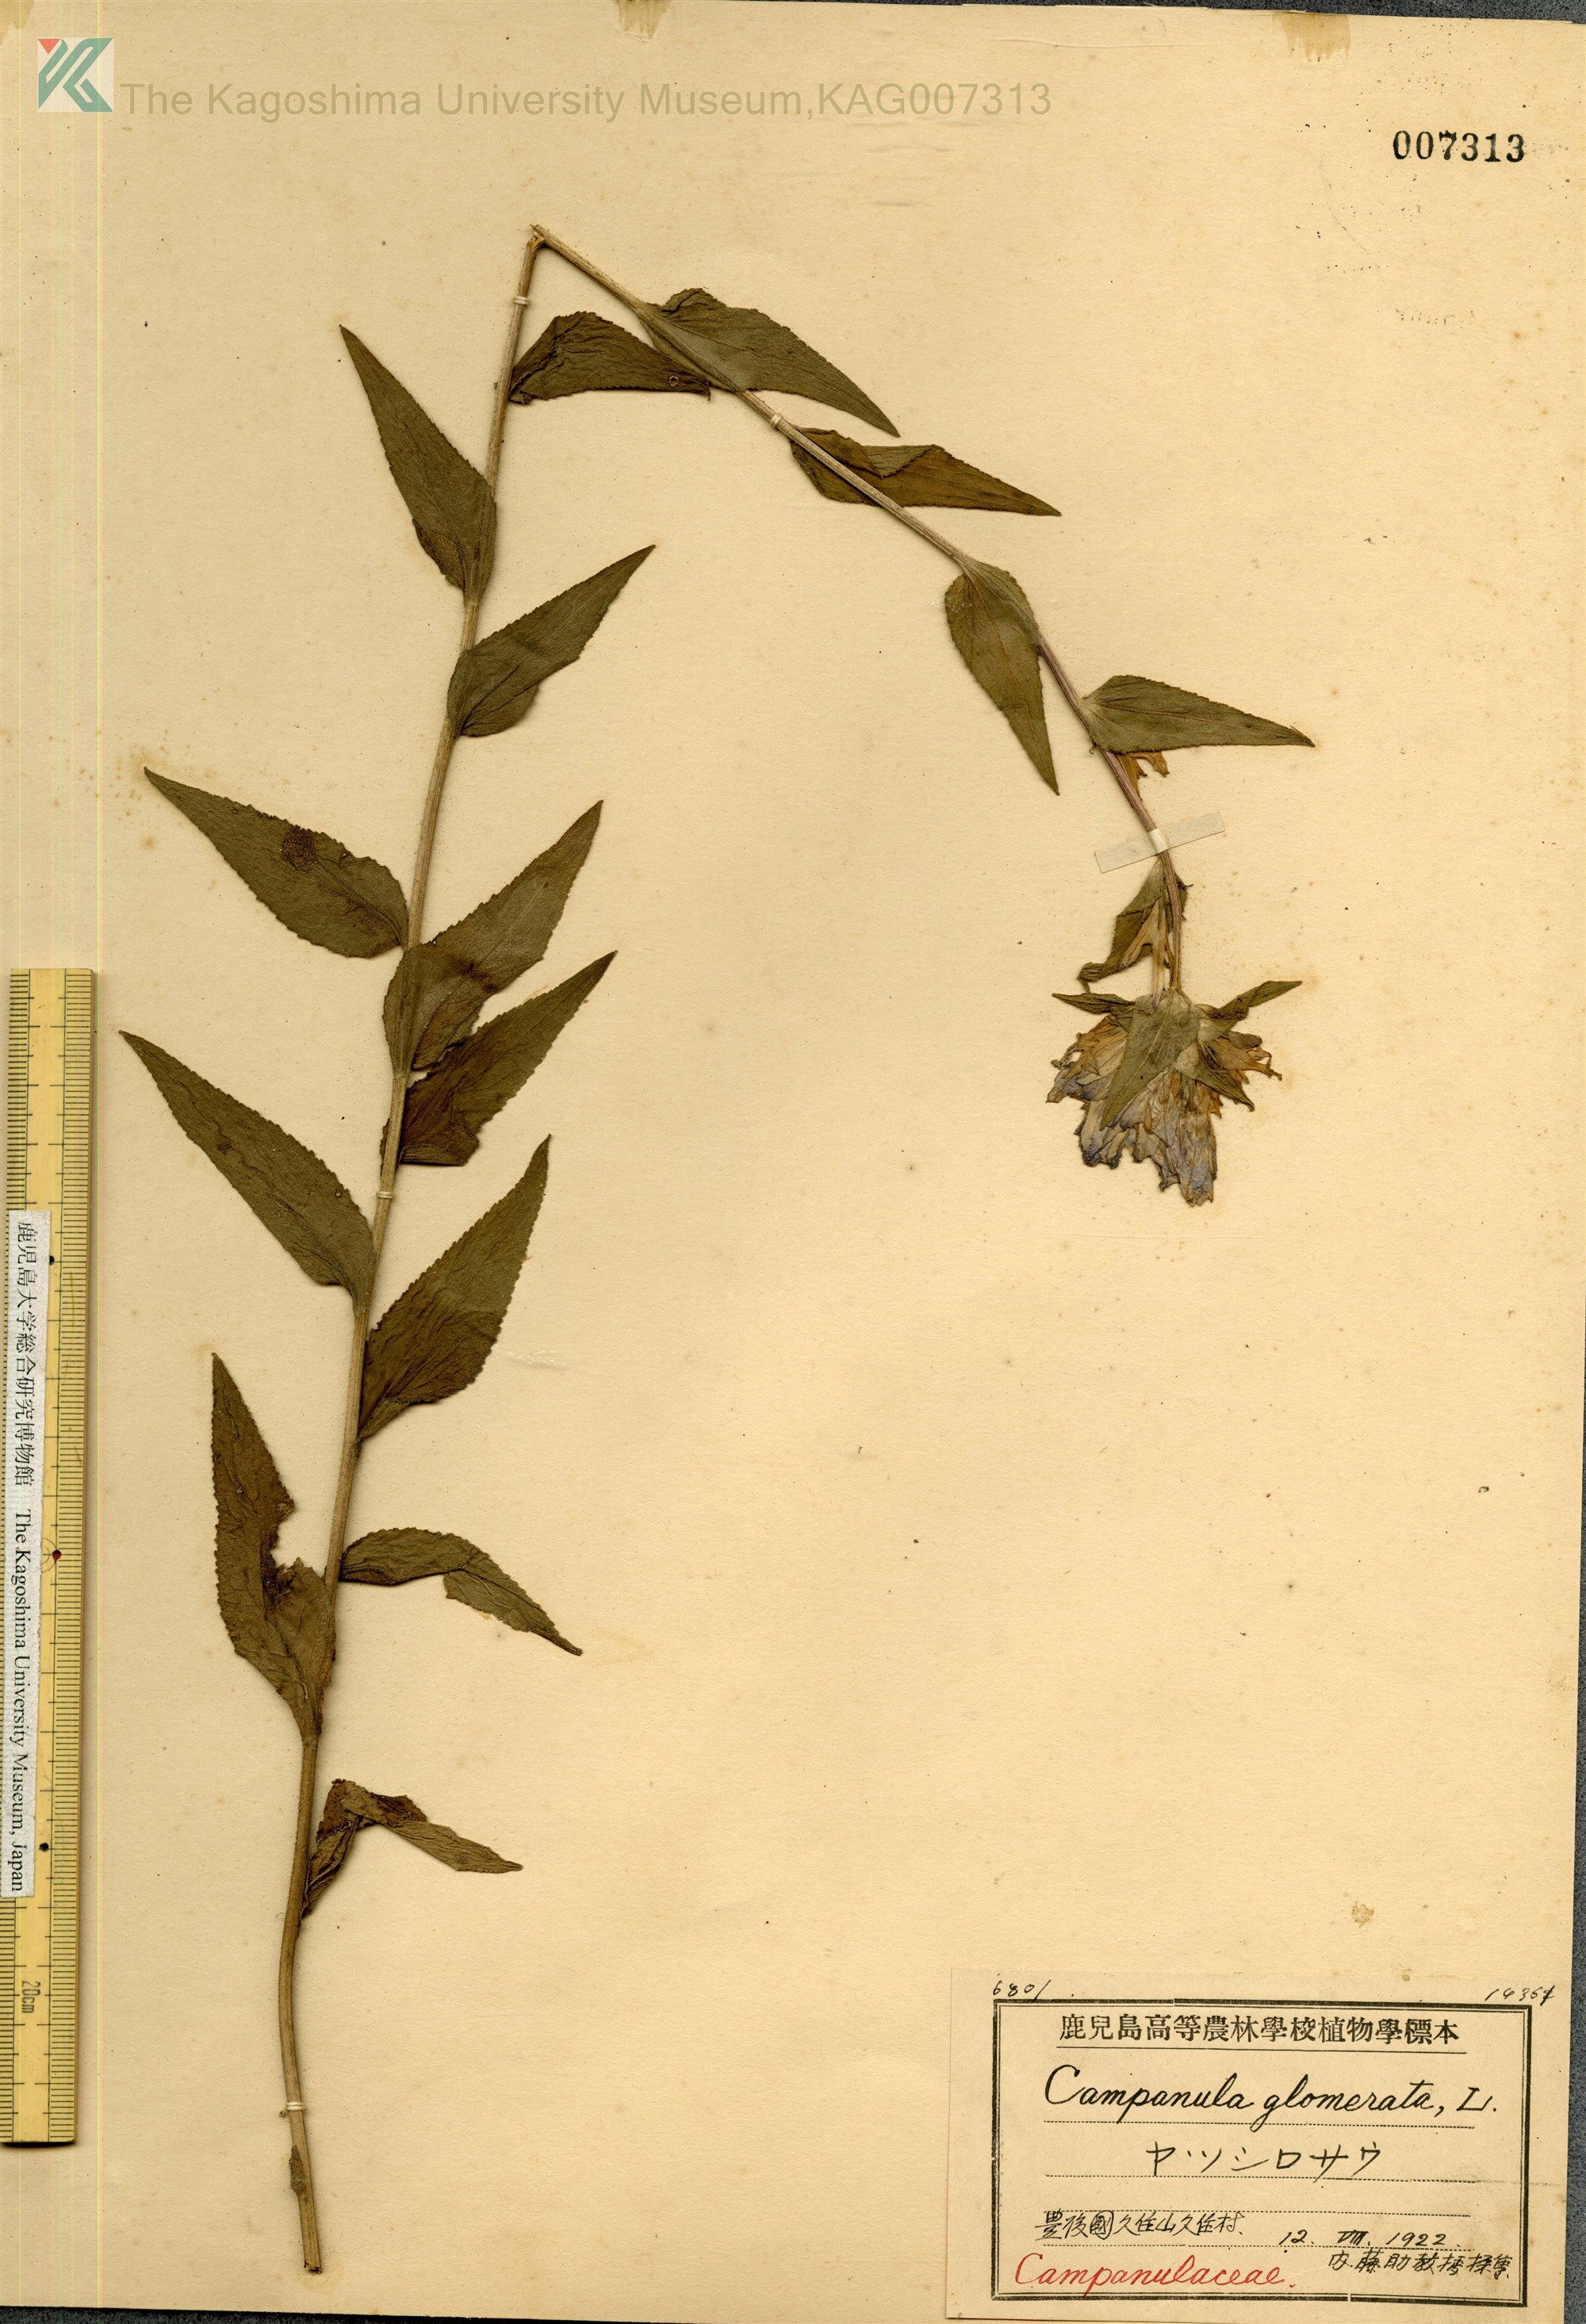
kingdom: Plantae
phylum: Tracheophyta
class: Magnoliopsida
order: Asterales
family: Campanulaceae
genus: Campanula
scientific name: Campanula glomerata
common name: Clustered bellflower
